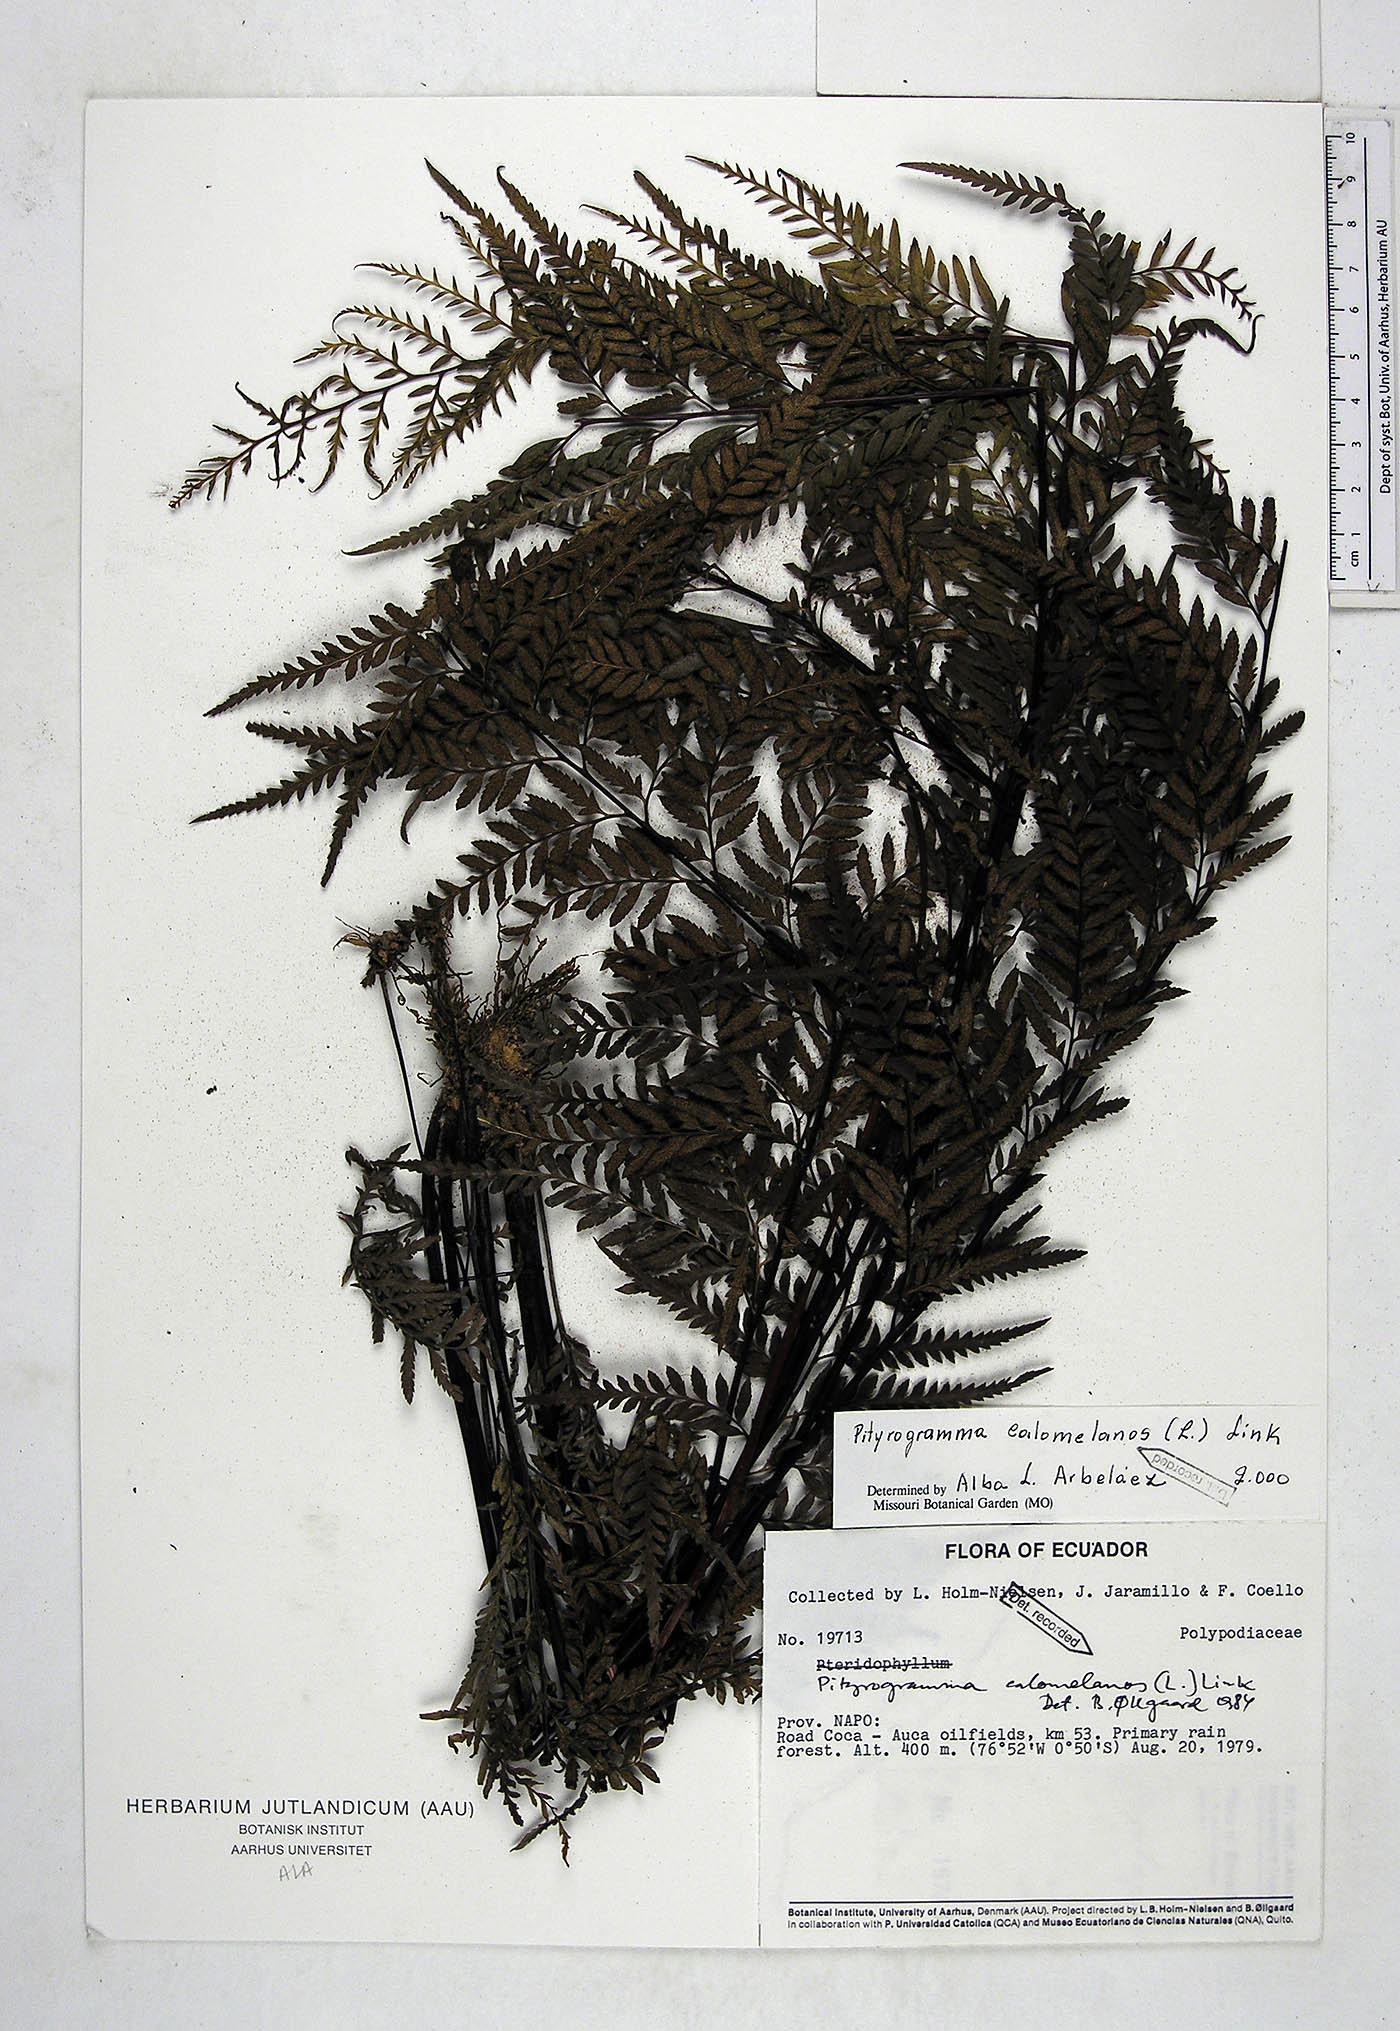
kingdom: Plantae
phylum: Tracheophyta
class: Polypodiopsida
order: Polypodiales
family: Pteridaceae
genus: Pityrogramma
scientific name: Pityrogramma calomelanos
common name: Dixie silverback fern
